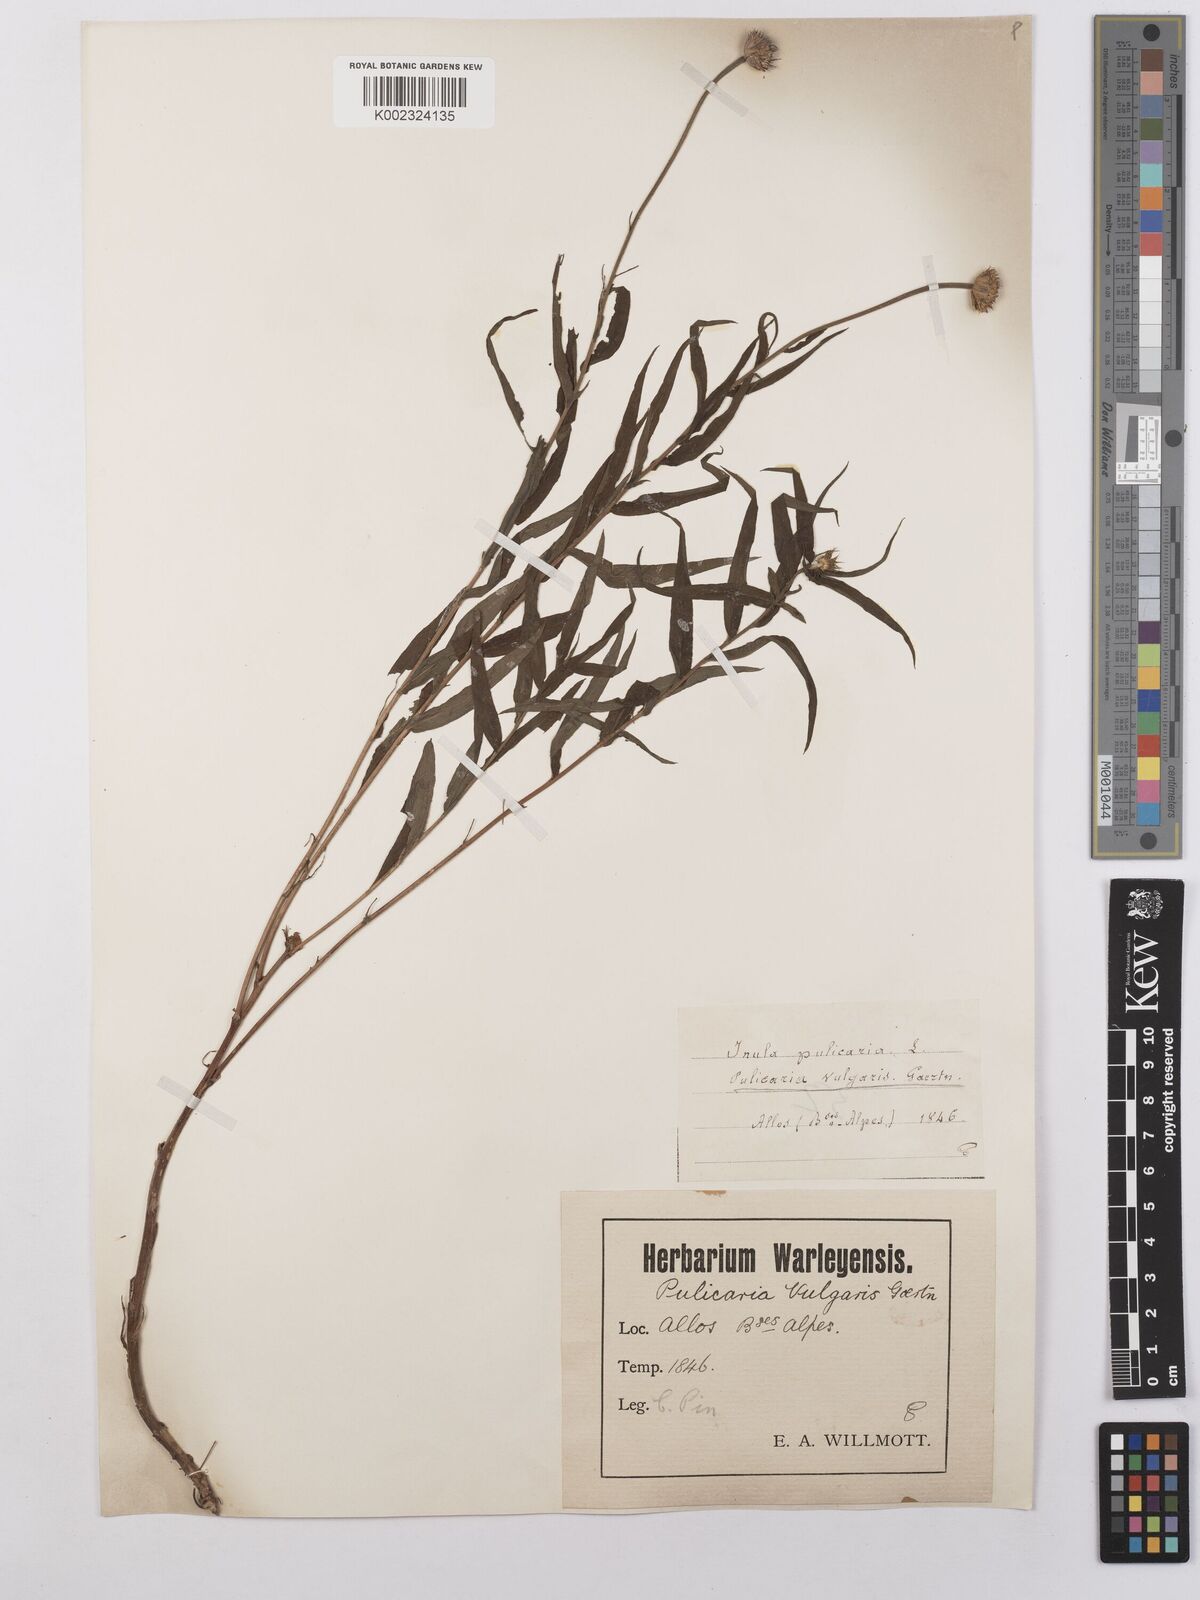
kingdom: Plantae
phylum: Tracheophyta
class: Magnoliopsida
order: Asterales
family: Asteraceae
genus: Pulicaria
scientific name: Pulicaria vulgaris
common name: Small fleabane
